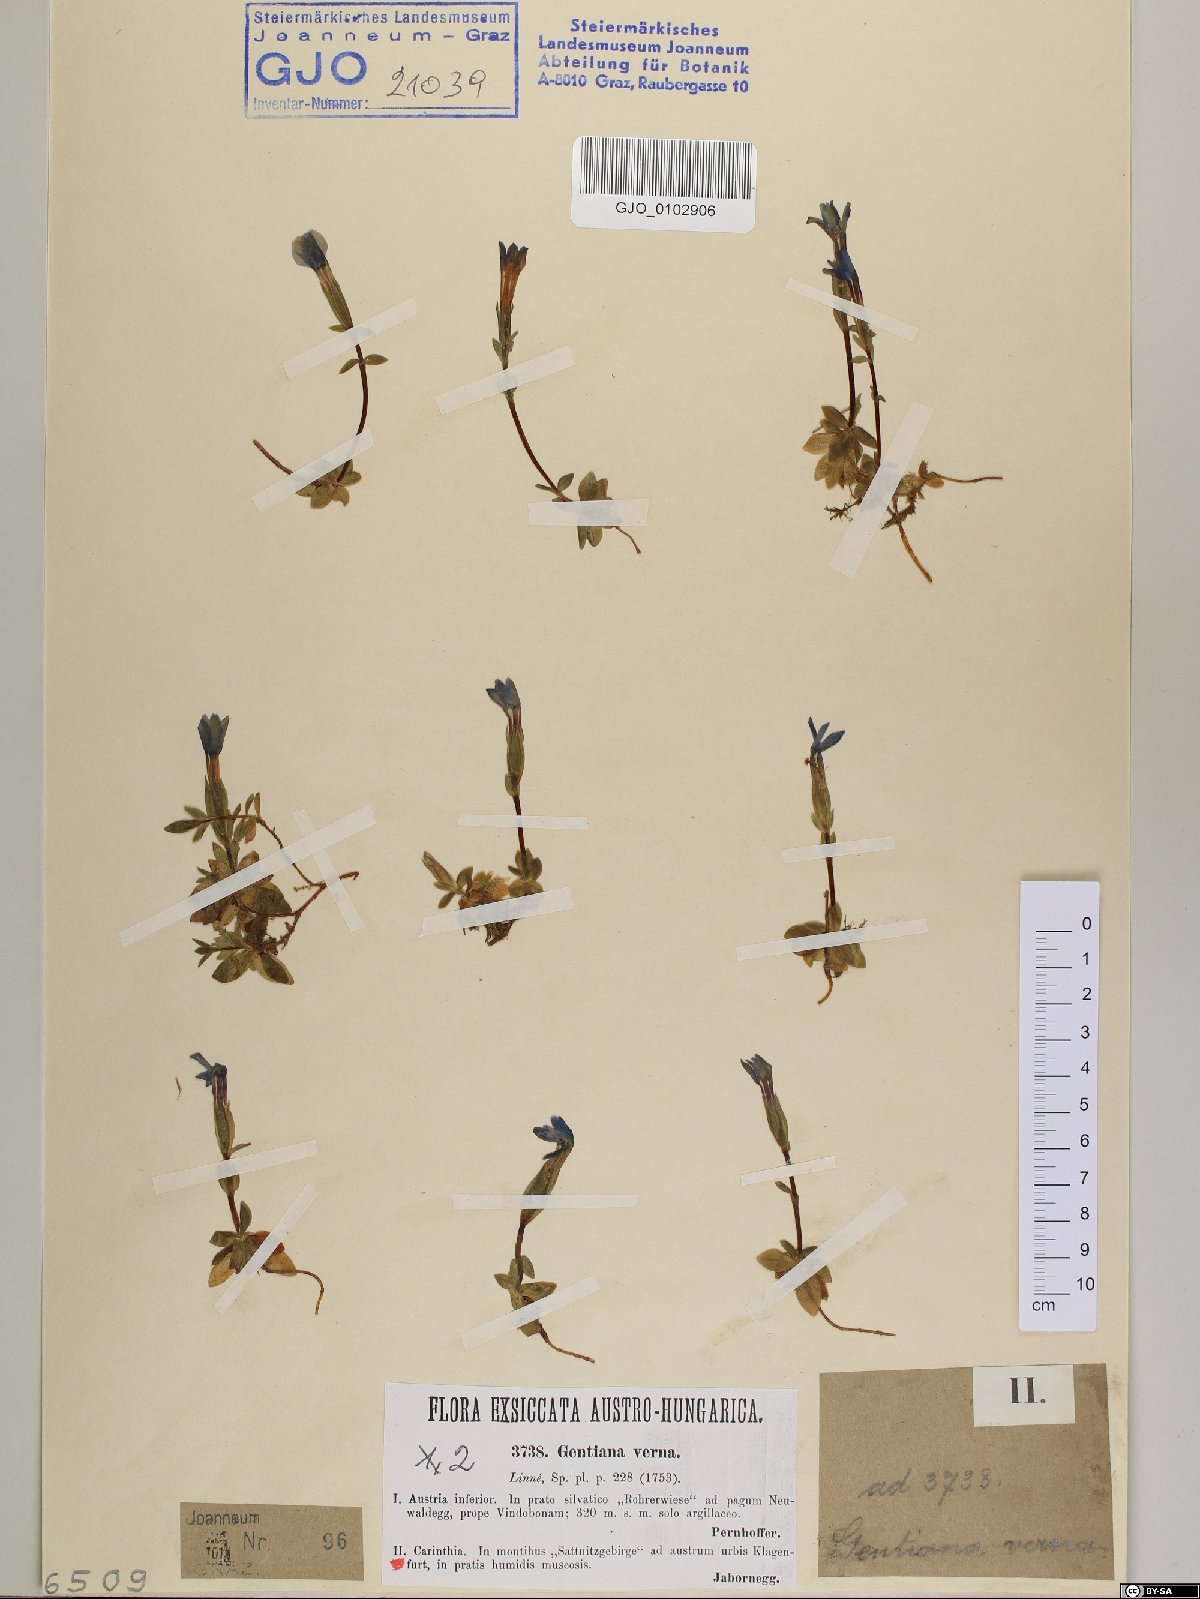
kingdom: Plantae
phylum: Tracheophyta
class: Magnoliopsida
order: Gentianales
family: Gentianaceae
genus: Gentiana
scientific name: Gentiana verna
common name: Spring gentian
